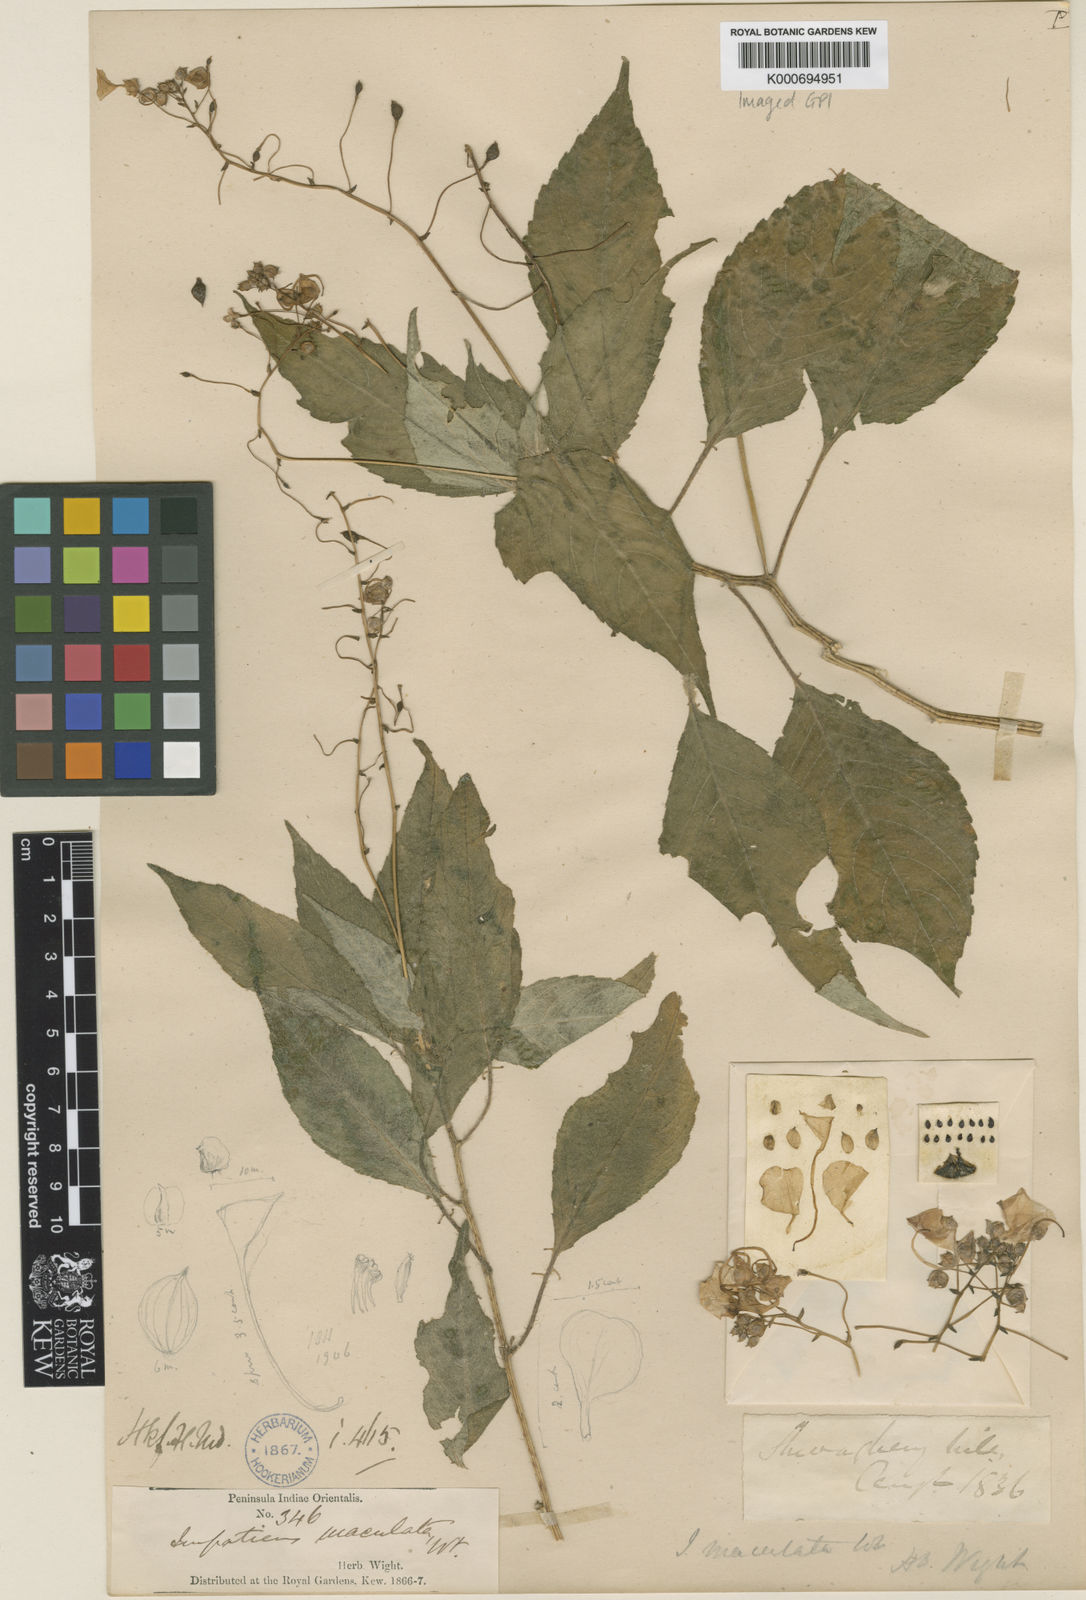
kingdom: Plantae
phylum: Tracheophyta
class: Magnoliopsida
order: Ericales
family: Balsaminaceae
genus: Impatiens
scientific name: Impatiens maculata
